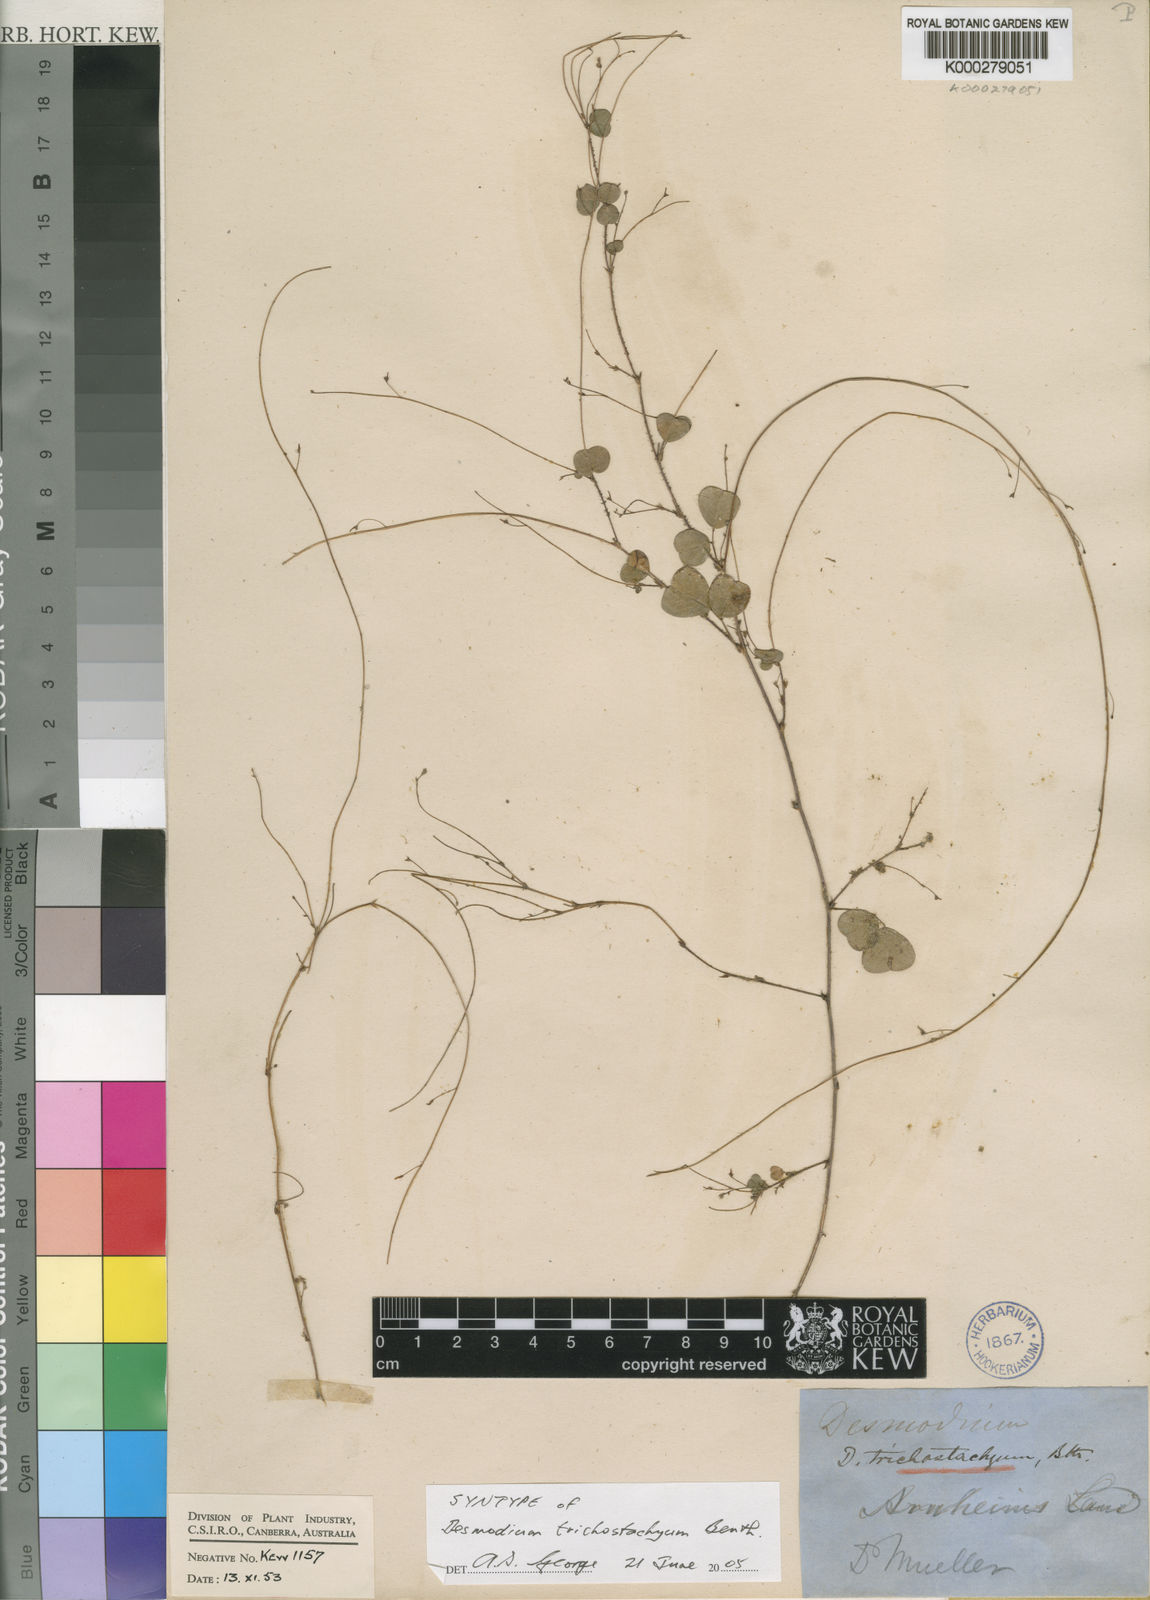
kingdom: Plantae
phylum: Tracheophyta
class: Magnoliopsida
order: Fabales
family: Fabaceae
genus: Grona
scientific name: Grona trichostachya
